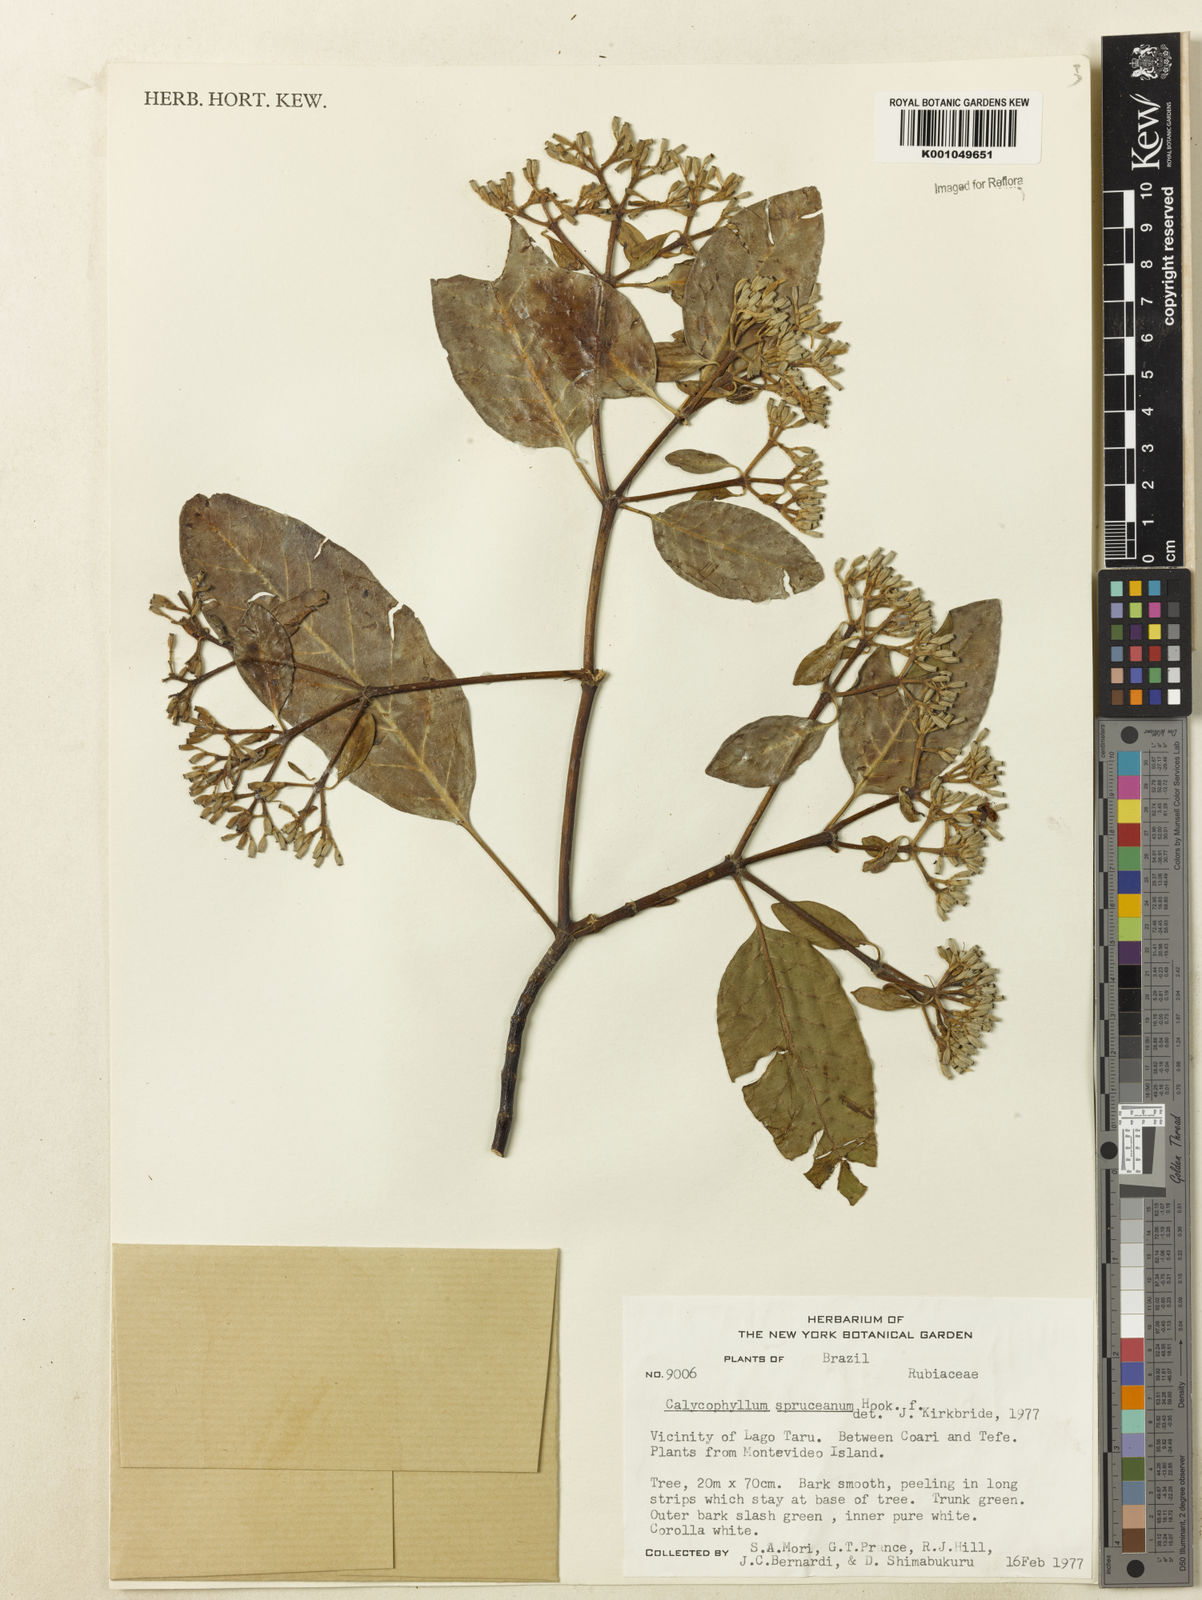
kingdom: Plantae
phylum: Tracheophyta
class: Magnoliopsida
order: Gentianales
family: Rubiaceae
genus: Calycophyllum
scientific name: Calycophyllum spruceanum
